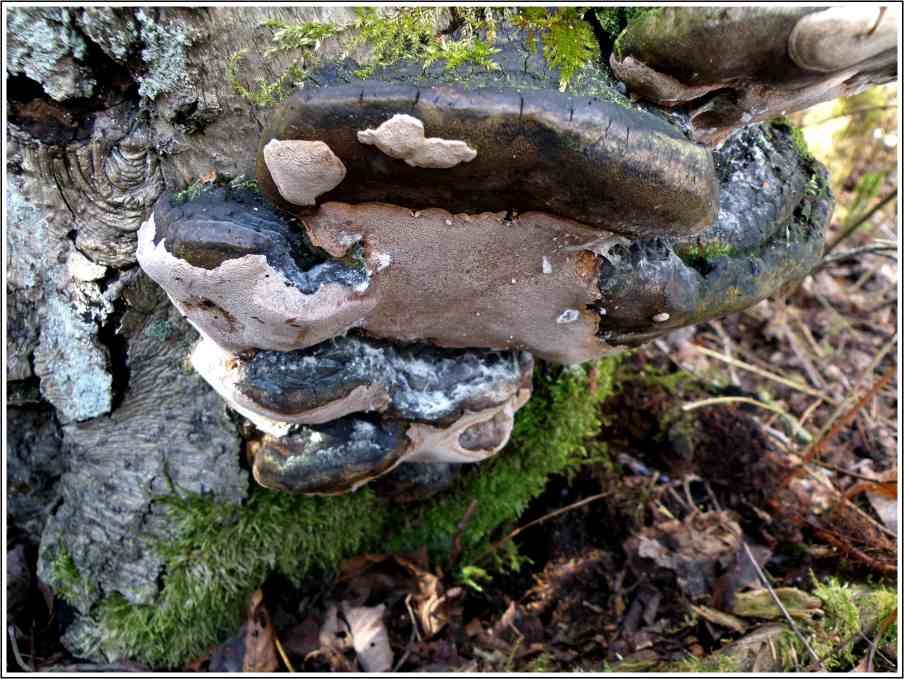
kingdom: Fungi
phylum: Basidiomycota
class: Agaricomycetes
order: Hymenochaetales
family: Hymenochaetaceae
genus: Phellinus
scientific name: Phellinus lundellii
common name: birke-ildporesvamp
